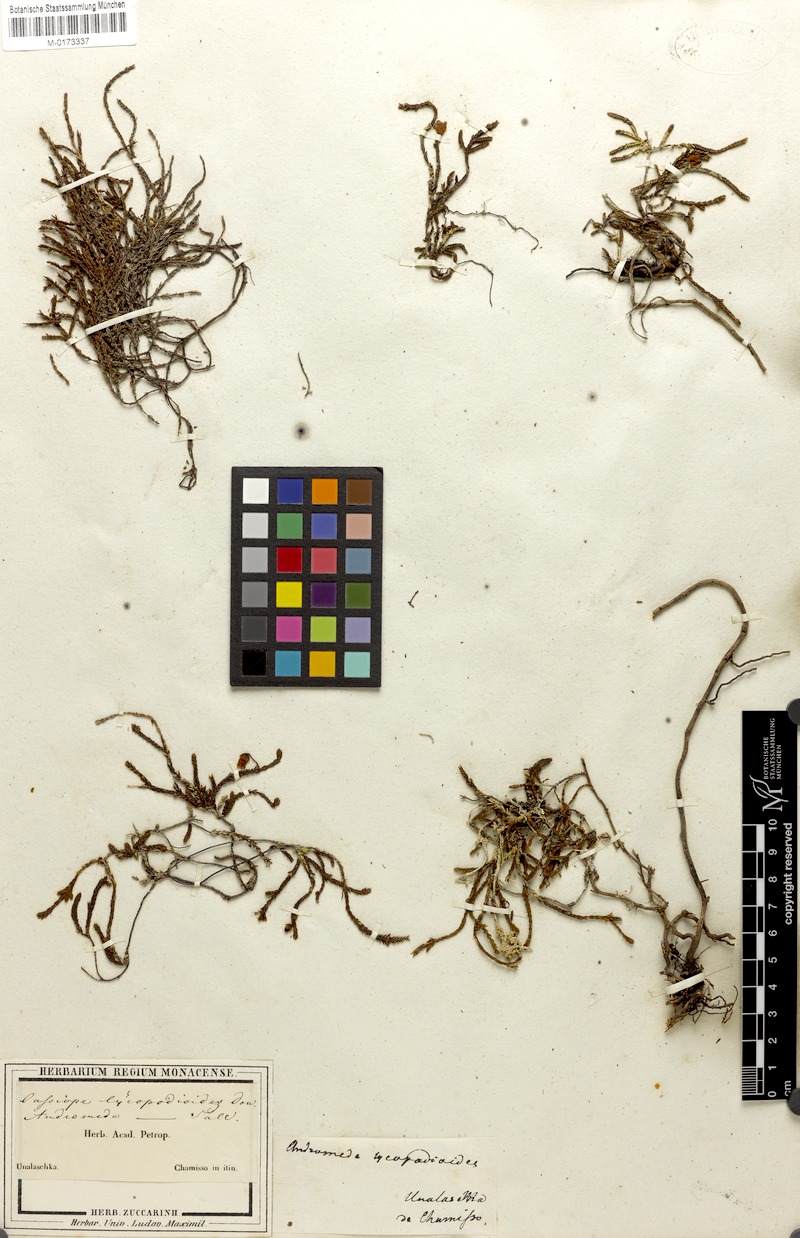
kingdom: Plantae
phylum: Tracheophyta
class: Magnoliopsida
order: Ericales
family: Ericaceae
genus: Cassiope
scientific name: Cassiope lycopodioides
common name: Clubmoss mountain heather
